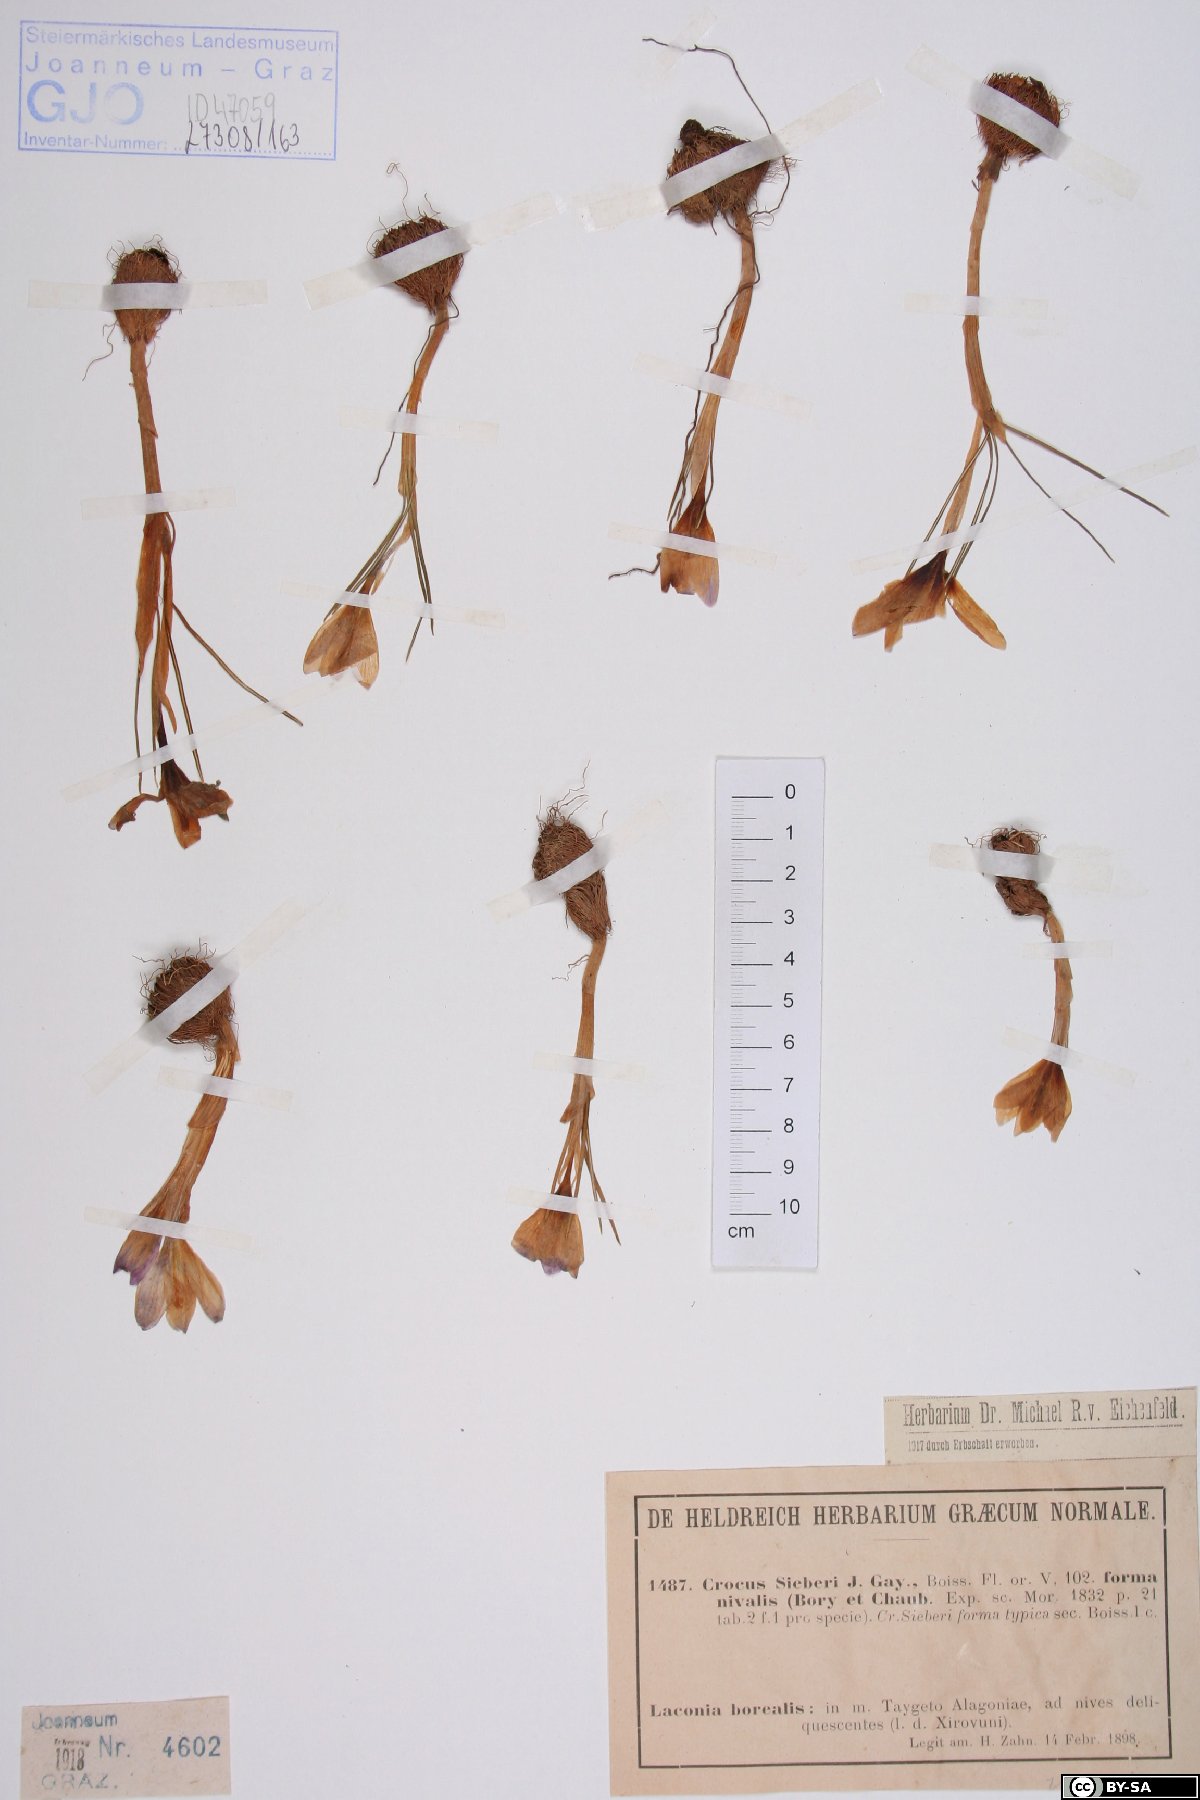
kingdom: Plantae
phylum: Tracheophyta
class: Liliopsida
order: Asparagales
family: Iridaceae
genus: Crocus
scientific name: Crocus sieberi
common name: Sieber's crocus
